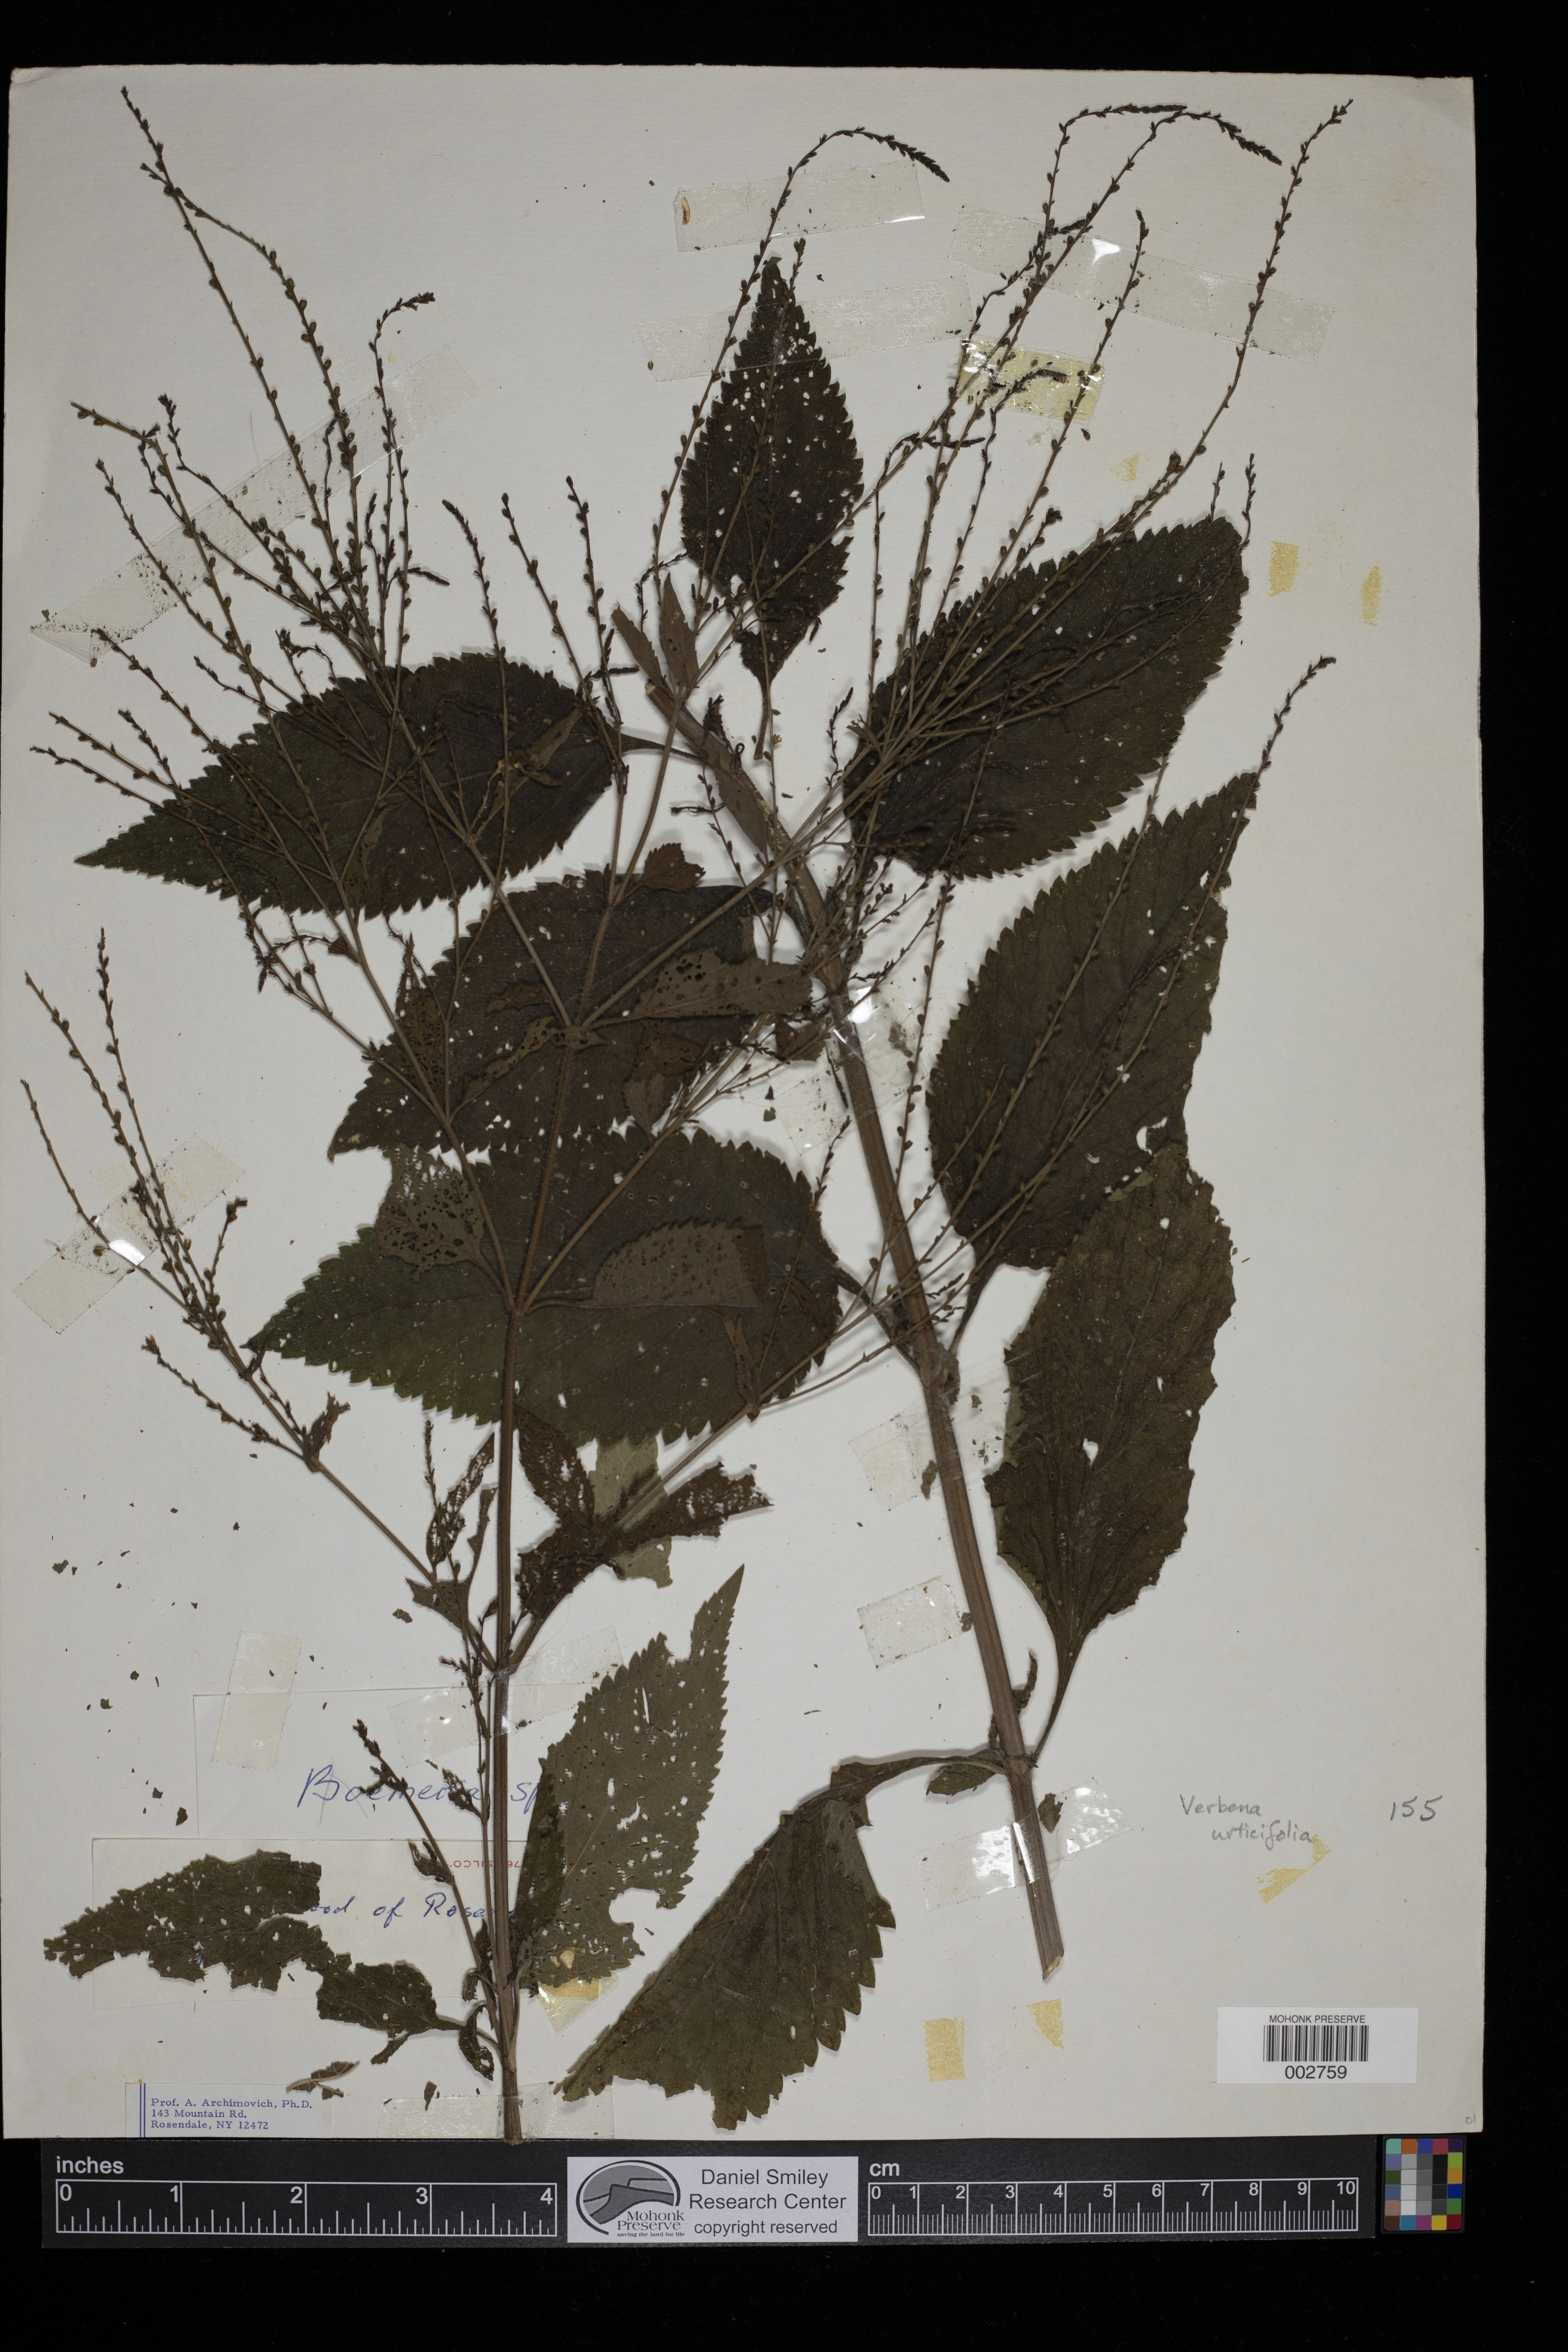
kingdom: Plantae
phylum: Tracheophyta
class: Magnoliopsida
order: Lamiales
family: Verbenaceae
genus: Verbena
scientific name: Verbena urticifolia
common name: Nettle-leaved vervain
